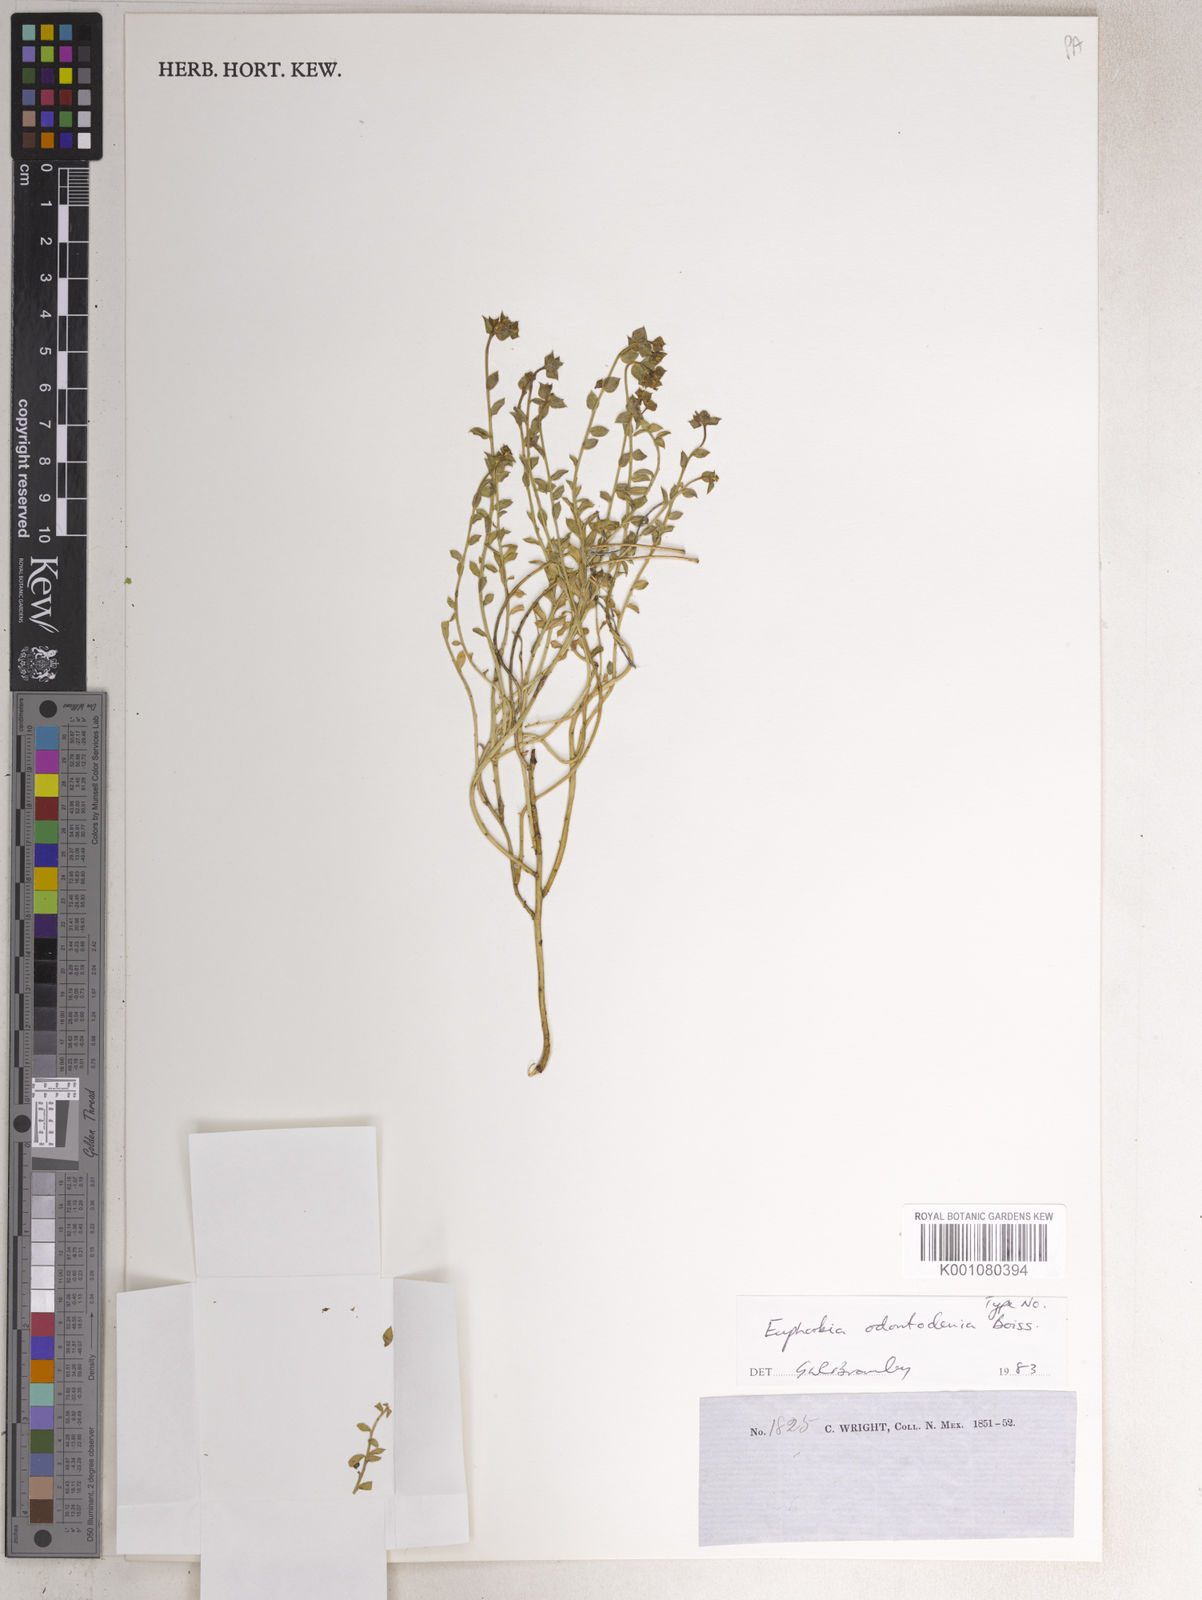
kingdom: Plantae
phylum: Tracheophyta
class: Magnoliopsida
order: Malpighiales
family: Euphorbiaceae
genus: Euphorbia
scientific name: Euphorbia brachycera
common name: Shorthorn spurge
